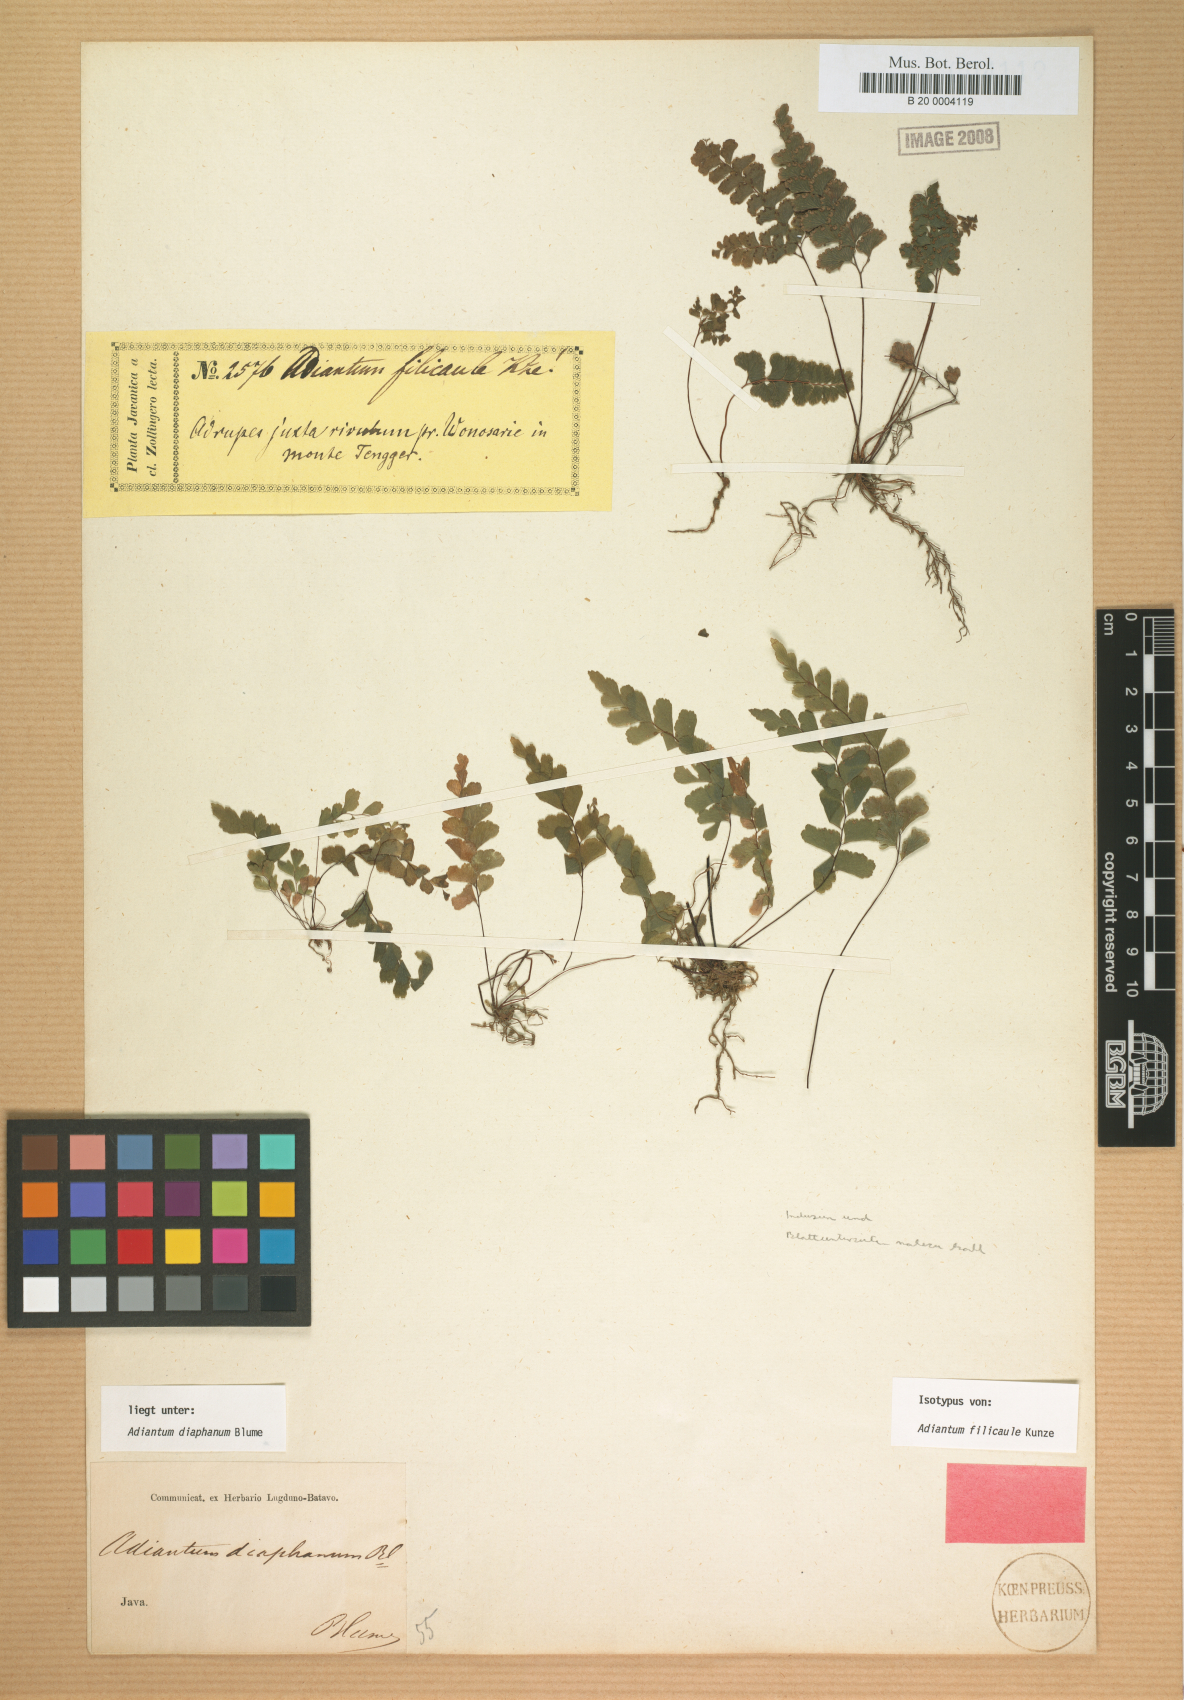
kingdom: Plantae
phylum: Tracheophyta
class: Polypodiopsida
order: Polypodiales
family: Pteridaceae
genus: Adiantum
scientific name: Adiantum diaphanum
